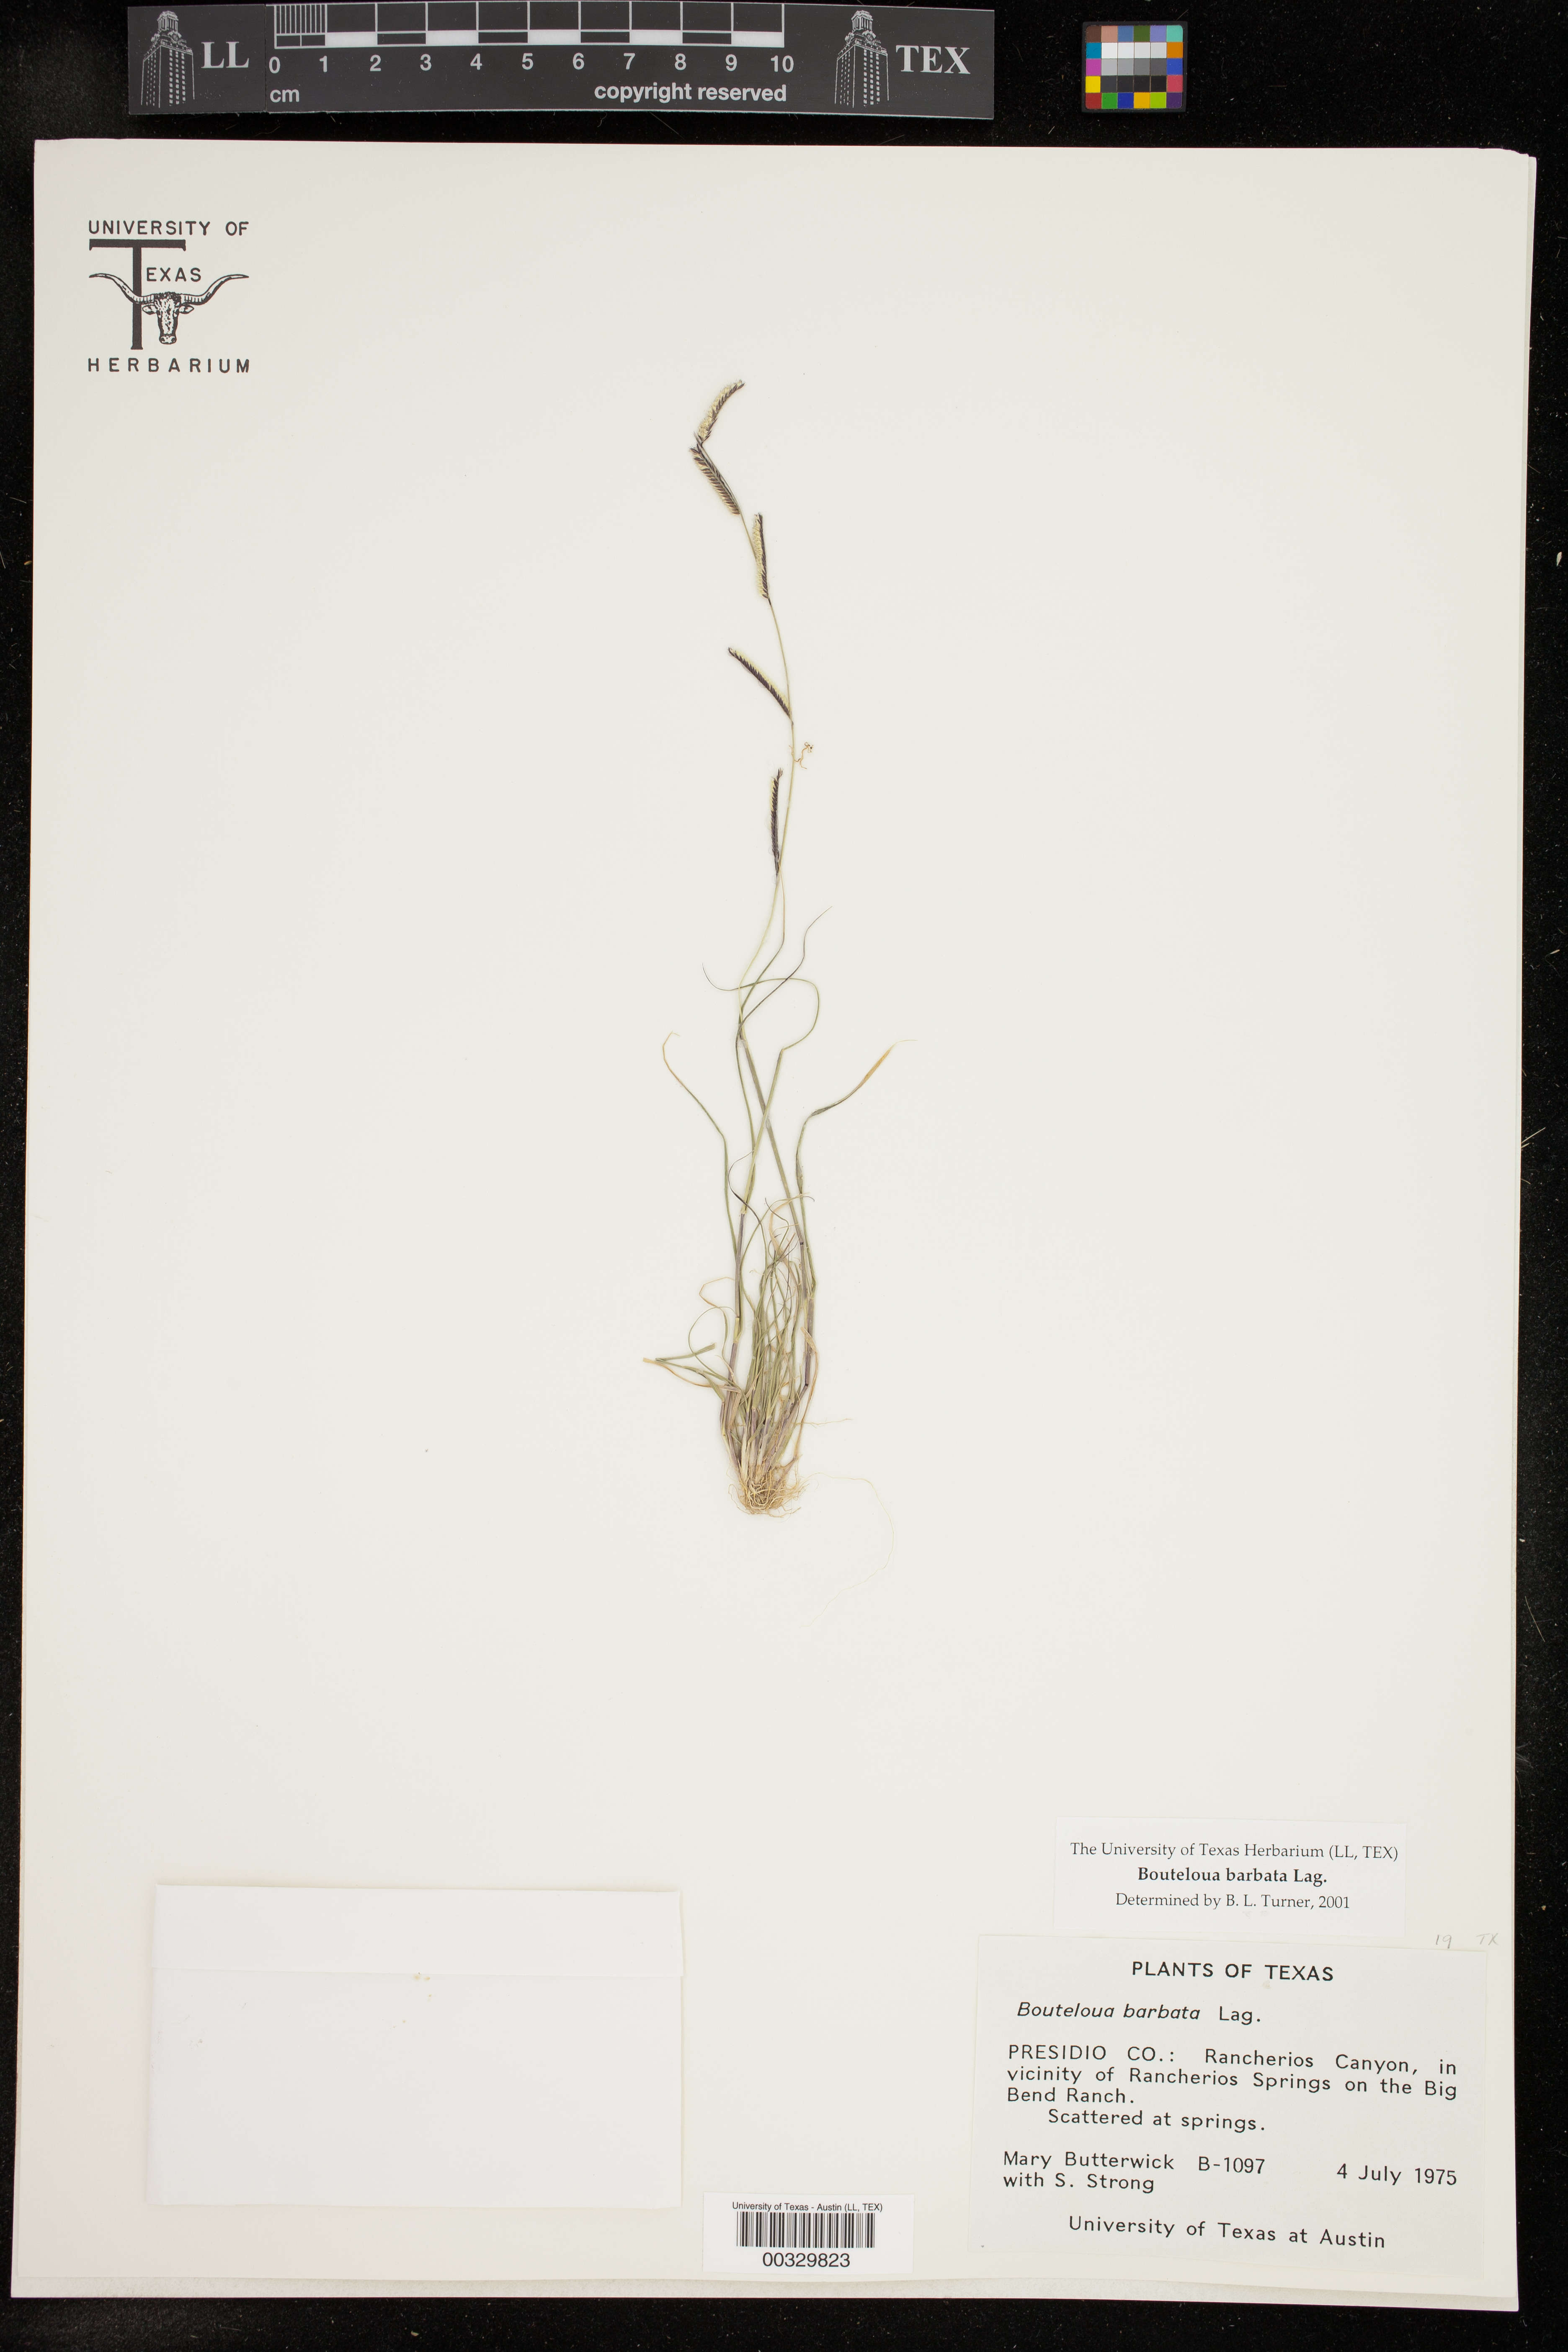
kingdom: Plantae
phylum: Tracheophyta
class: Liliopsida
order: Poales
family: Poaceae
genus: Bouteloua
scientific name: Bouteloua barbata
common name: Six-weeks grama
